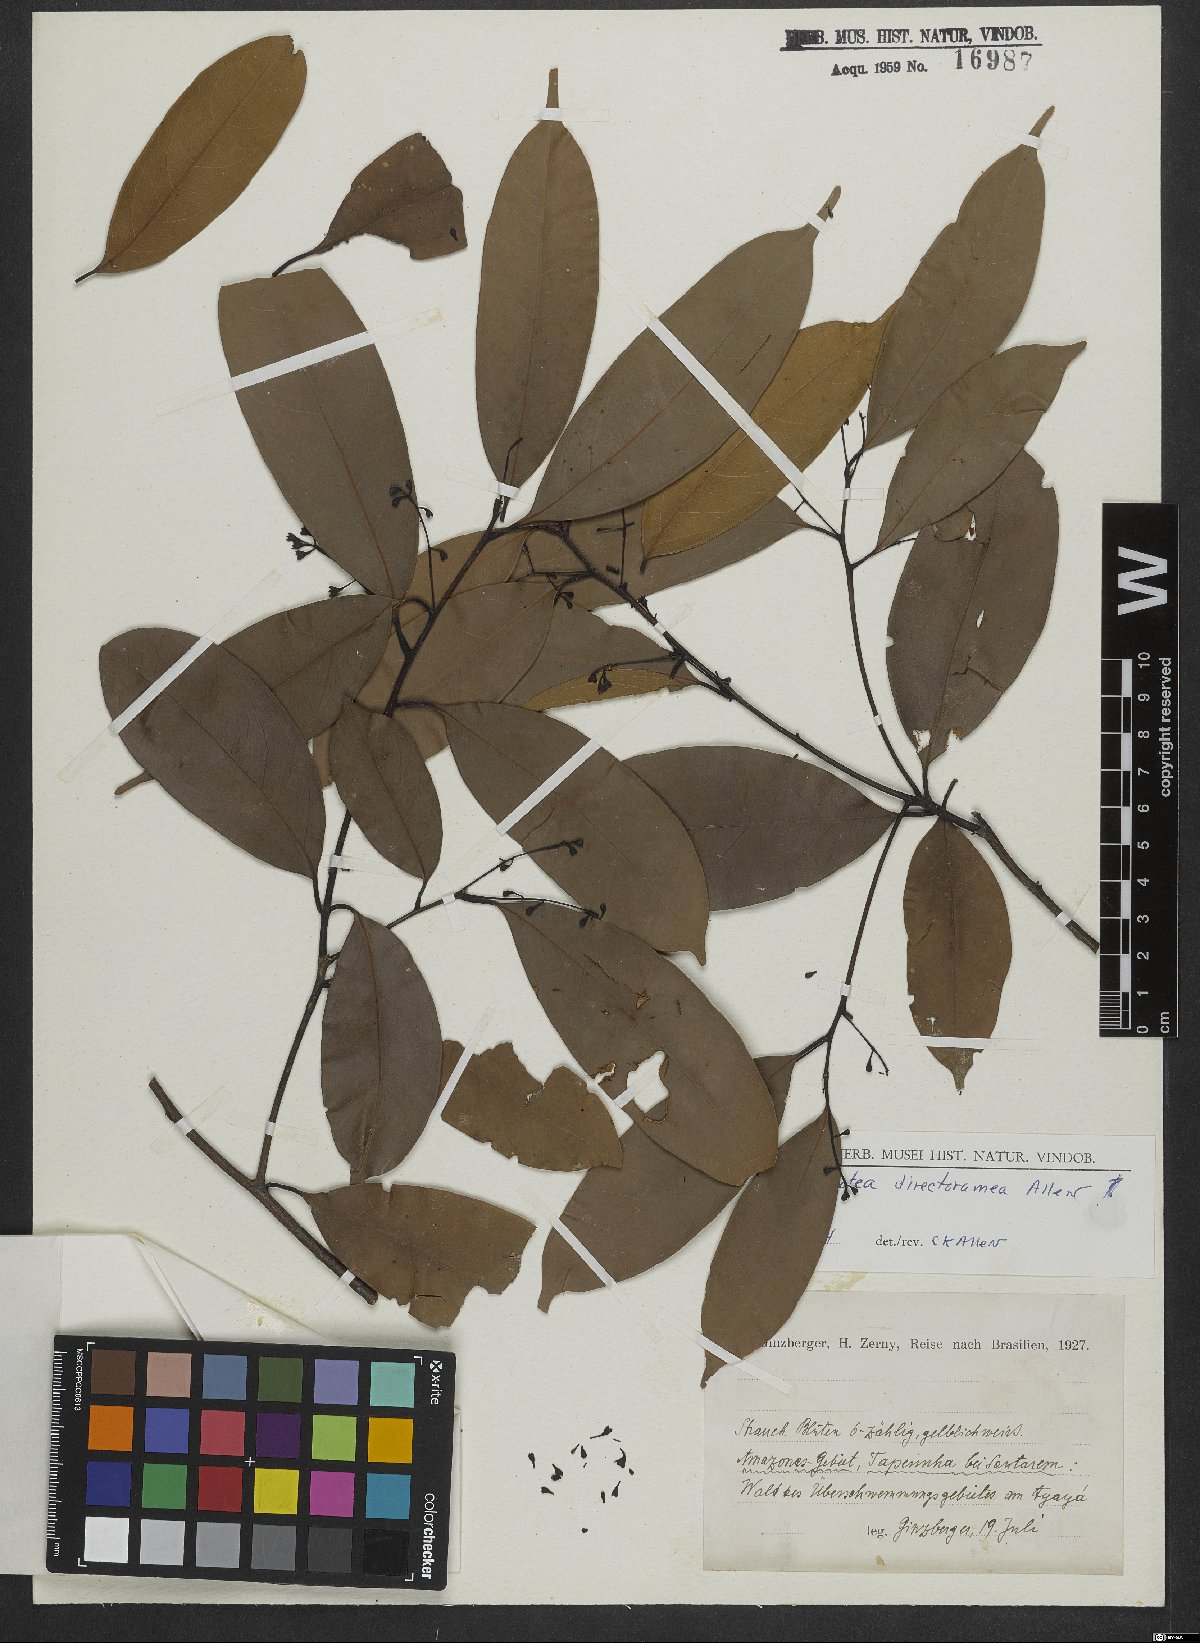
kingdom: Plantae
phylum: Tracheophyta
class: Magnoliopsida
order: Laurales
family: Lauraceae
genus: Ocotea
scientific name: Ocotea debilis
